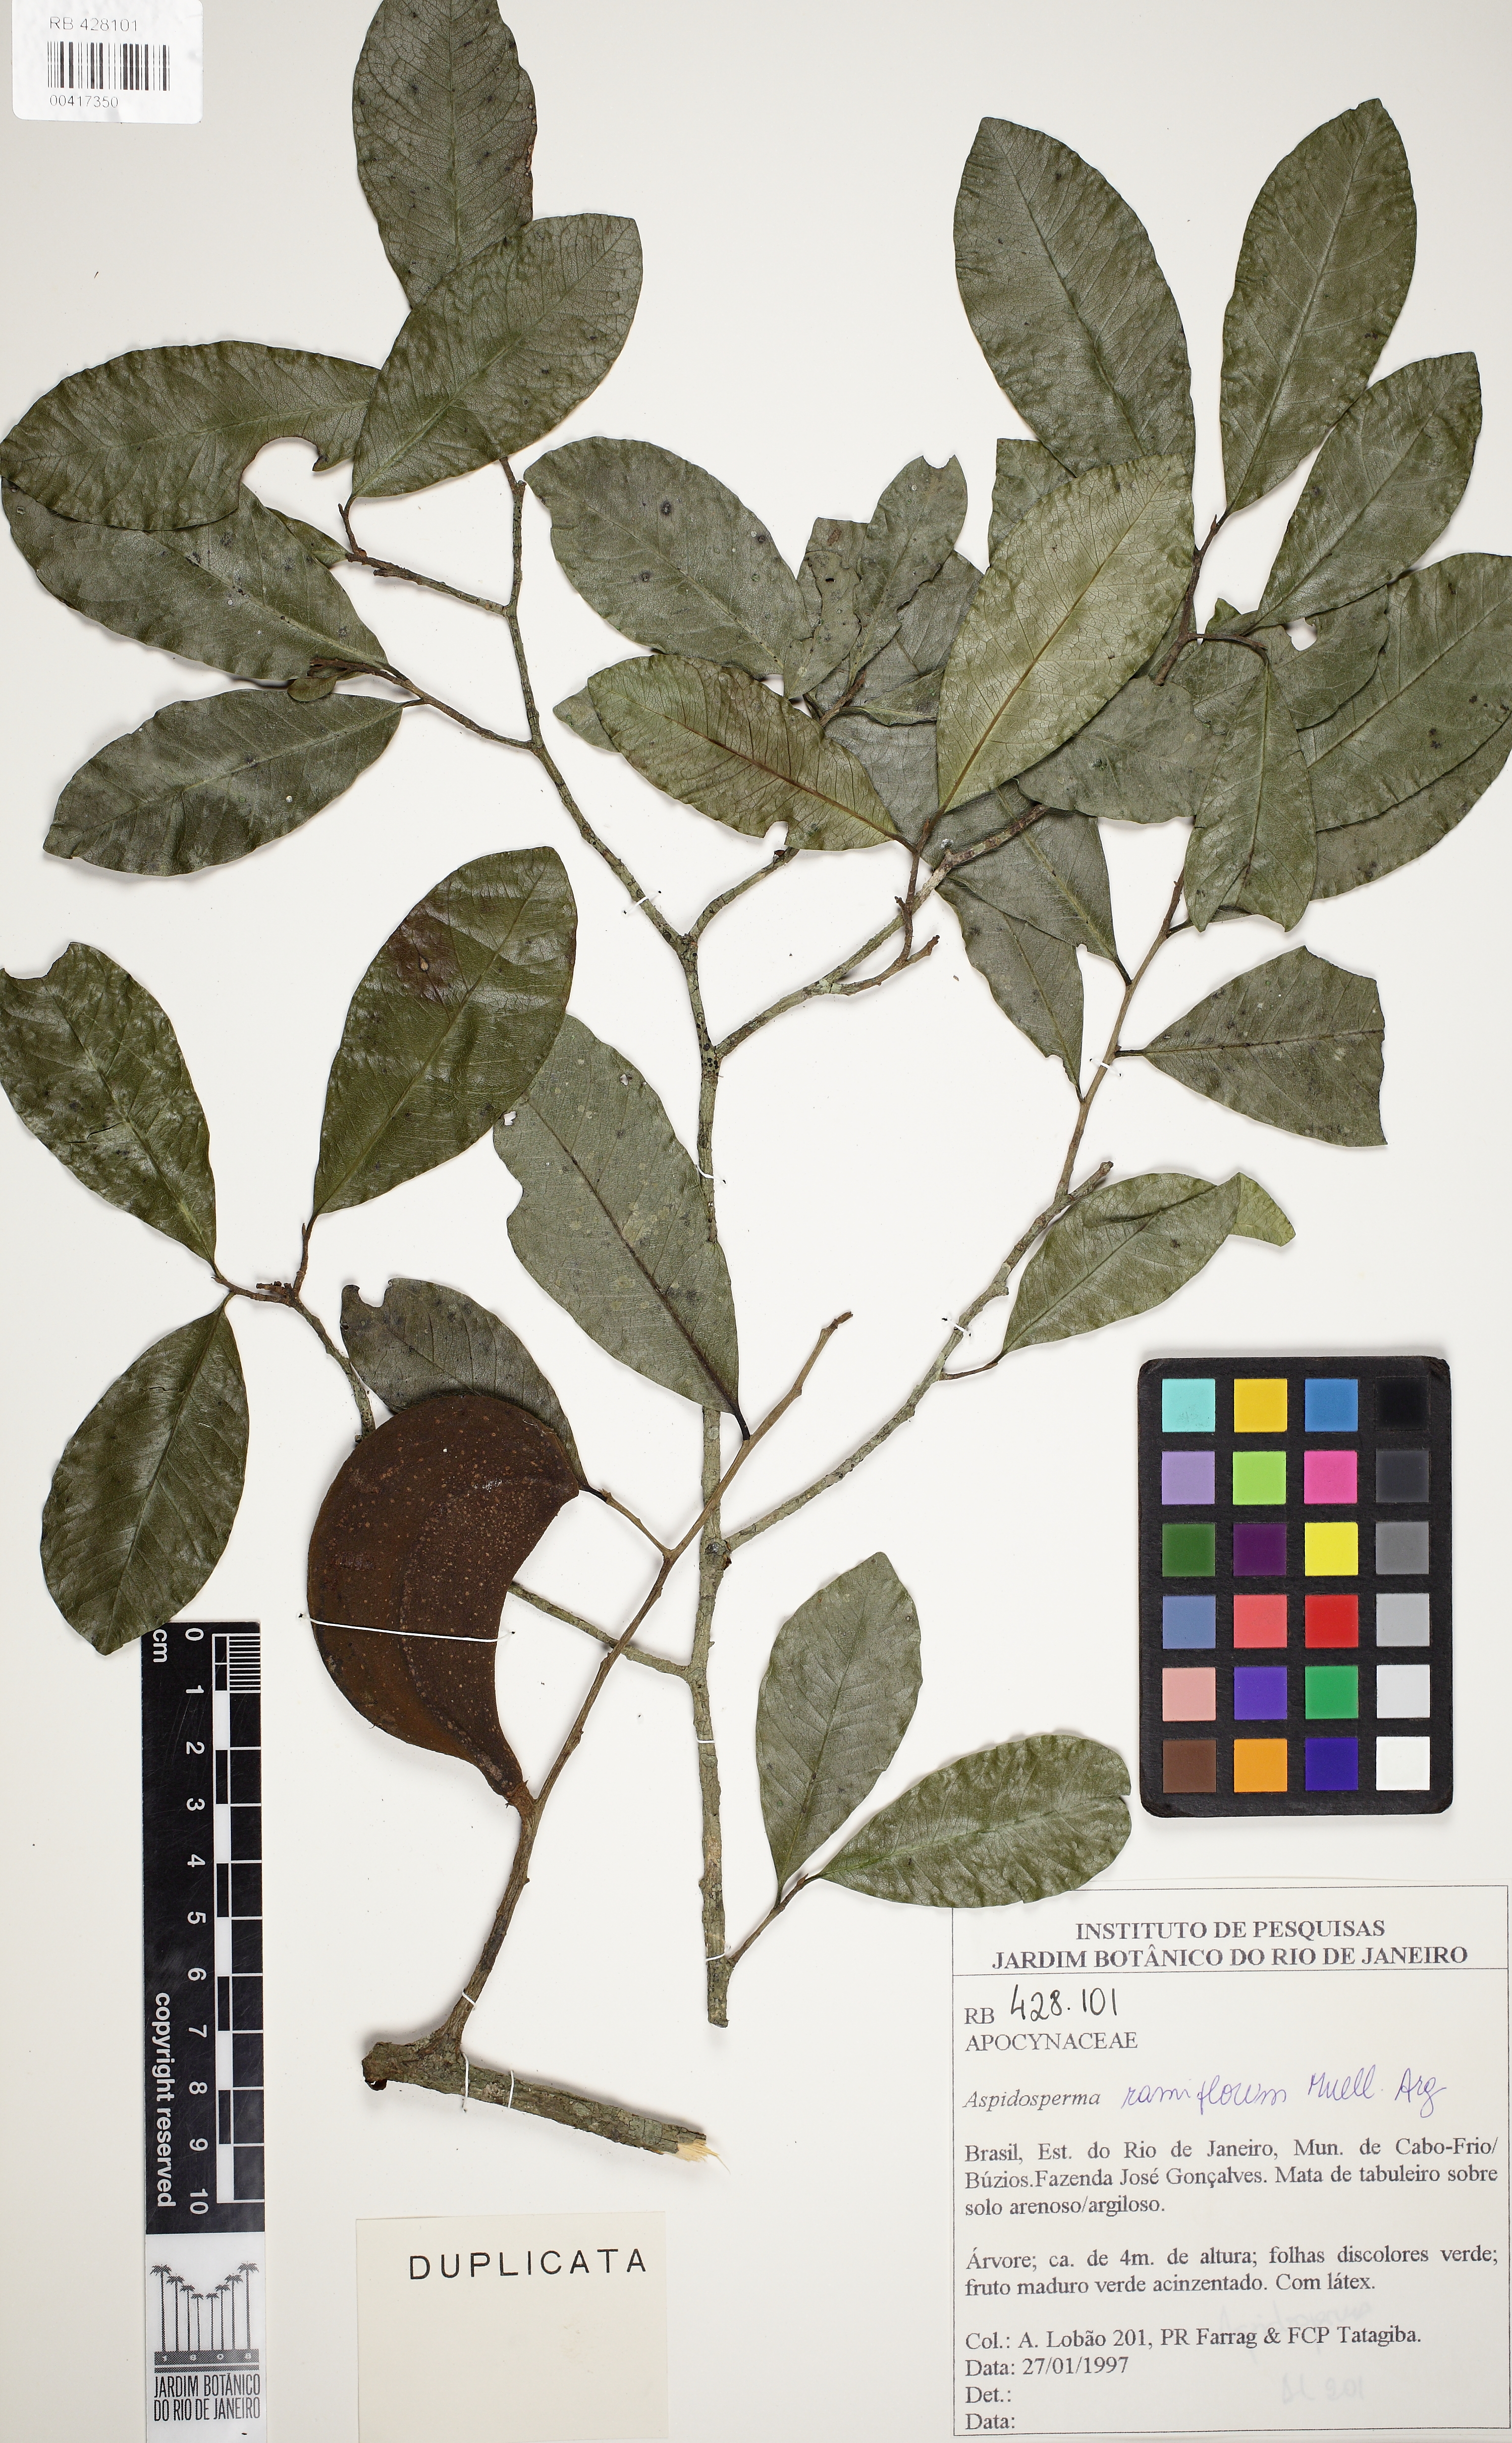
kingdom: Plantae
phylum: Tracheophyta
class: Magnoliopsida
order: Gentianales
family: Apocynaceae
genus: Aspidosperma
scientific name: Aspidosperma ramiflorum
